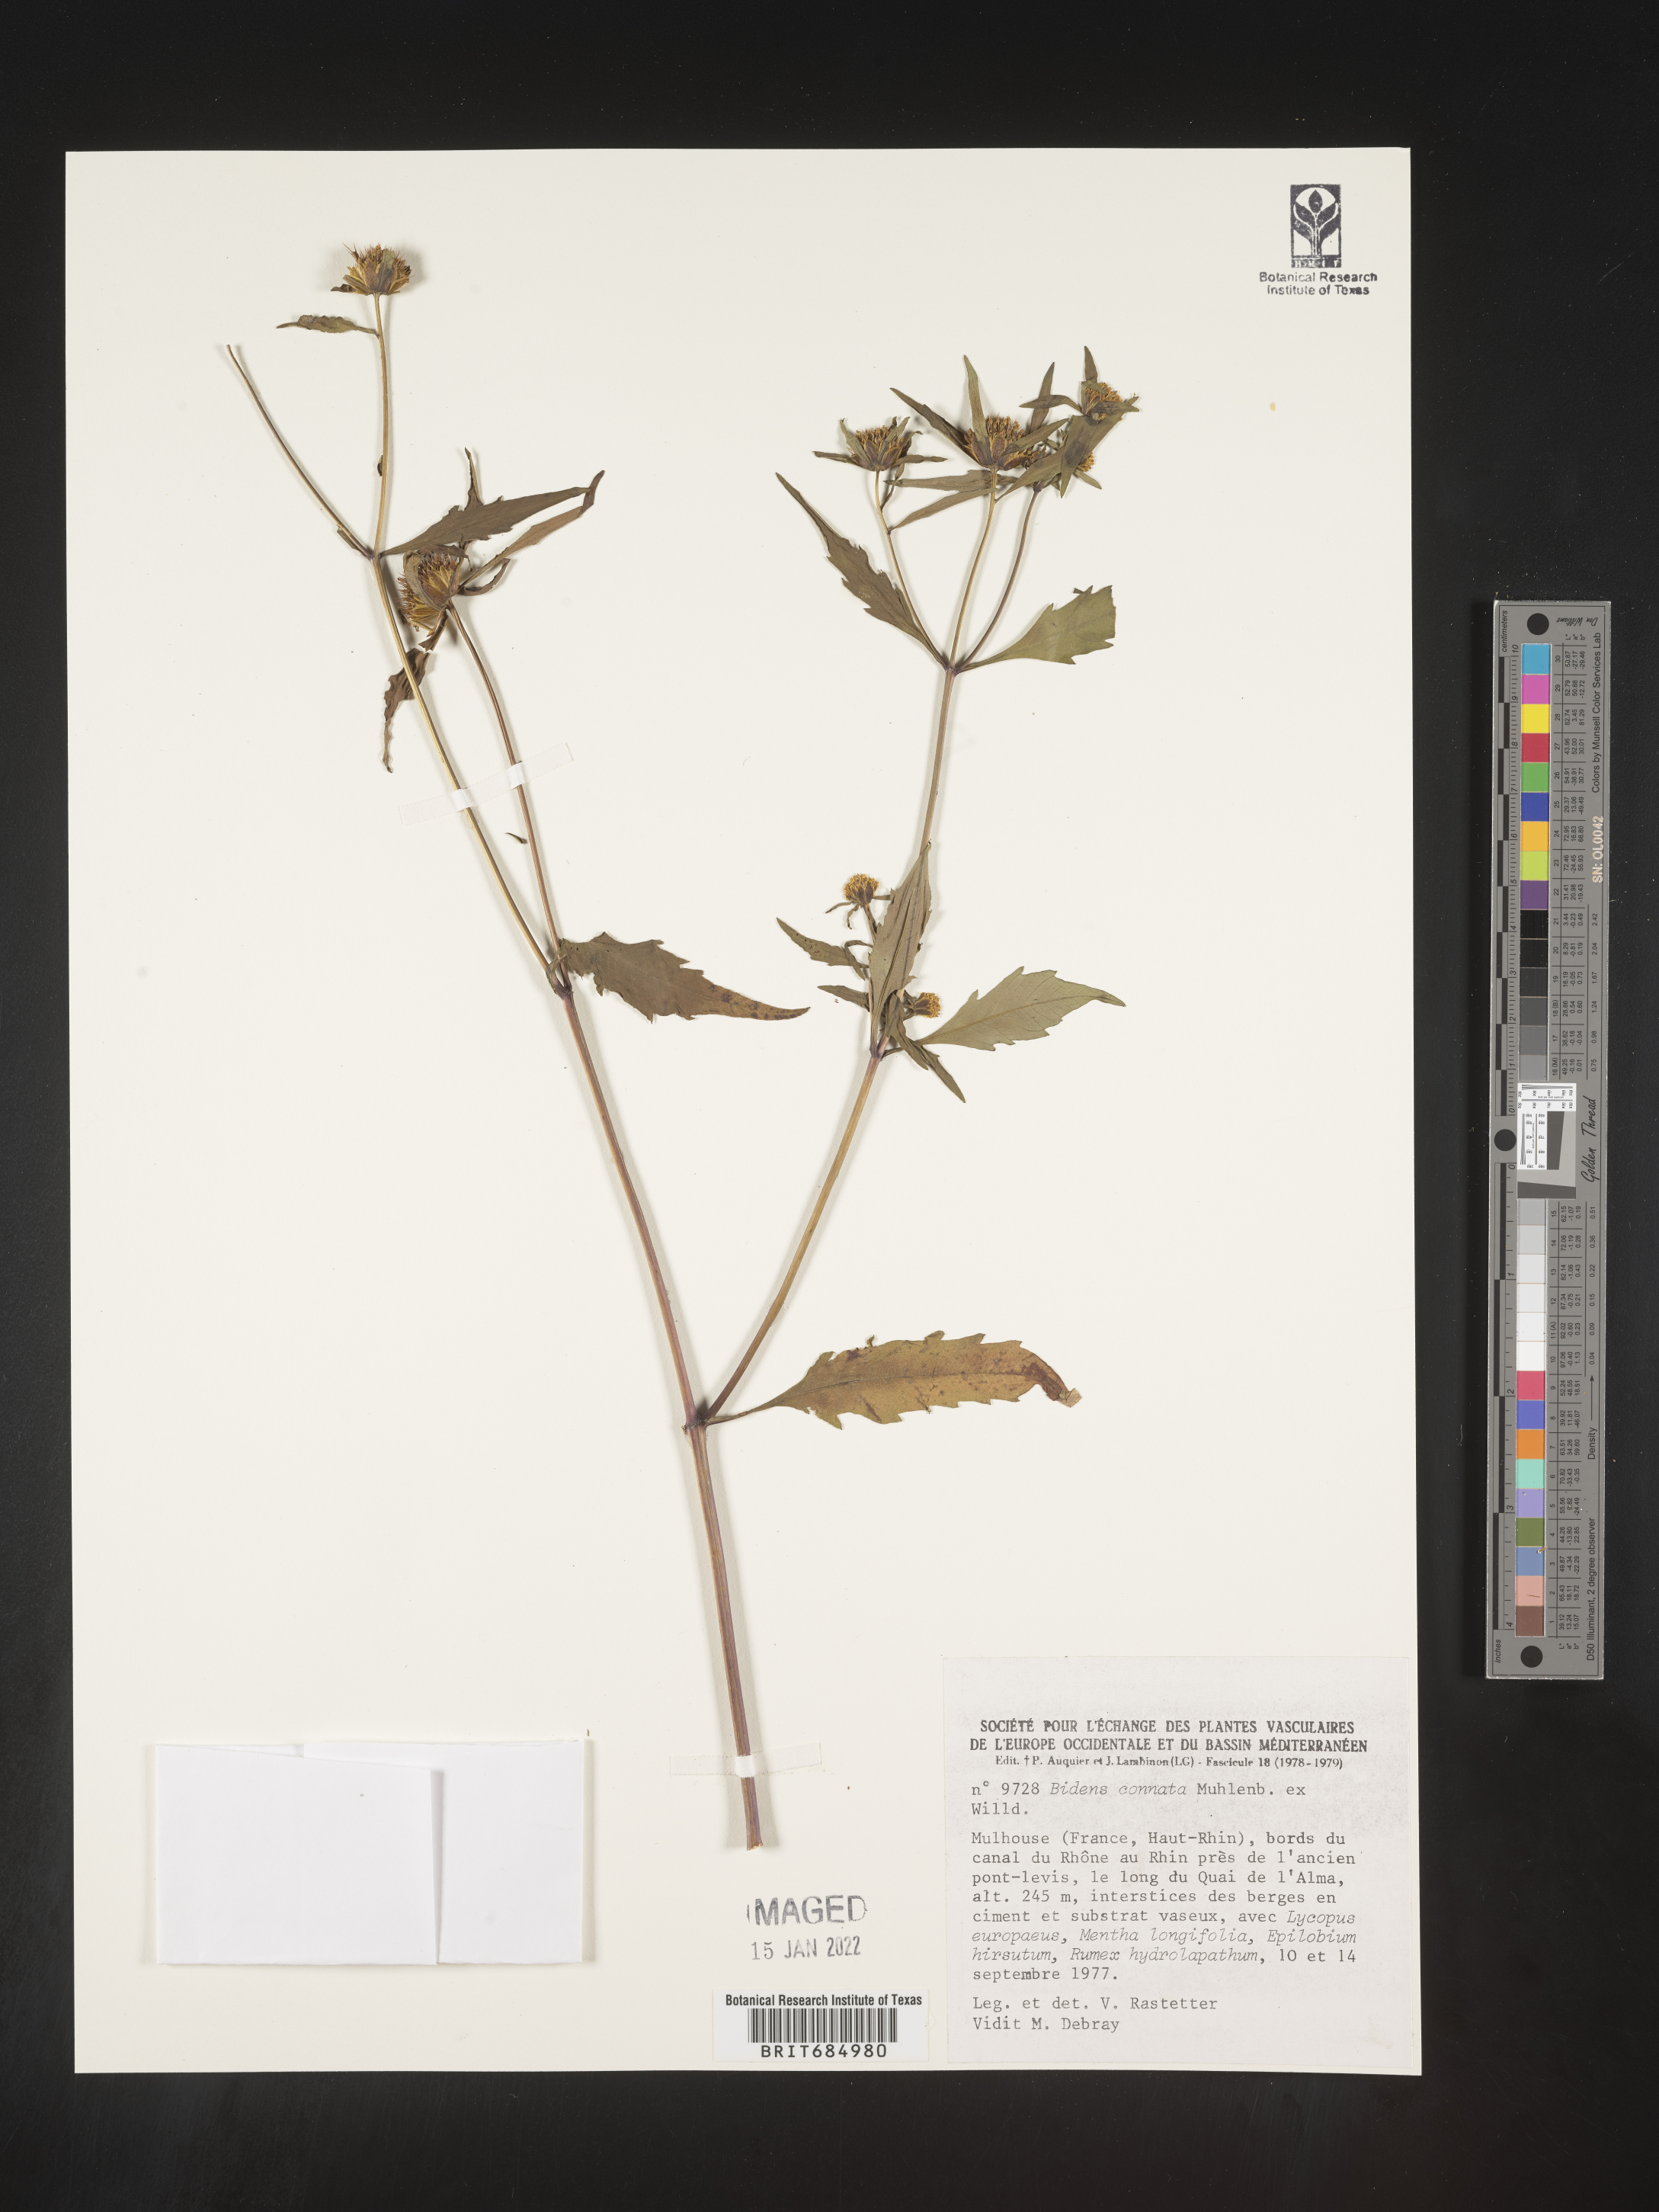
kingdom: Plantae
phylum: Tracheophyta
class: Magnoliopsida
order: Asterales
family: Asteraceae
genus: Bidens
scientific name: Bidens
